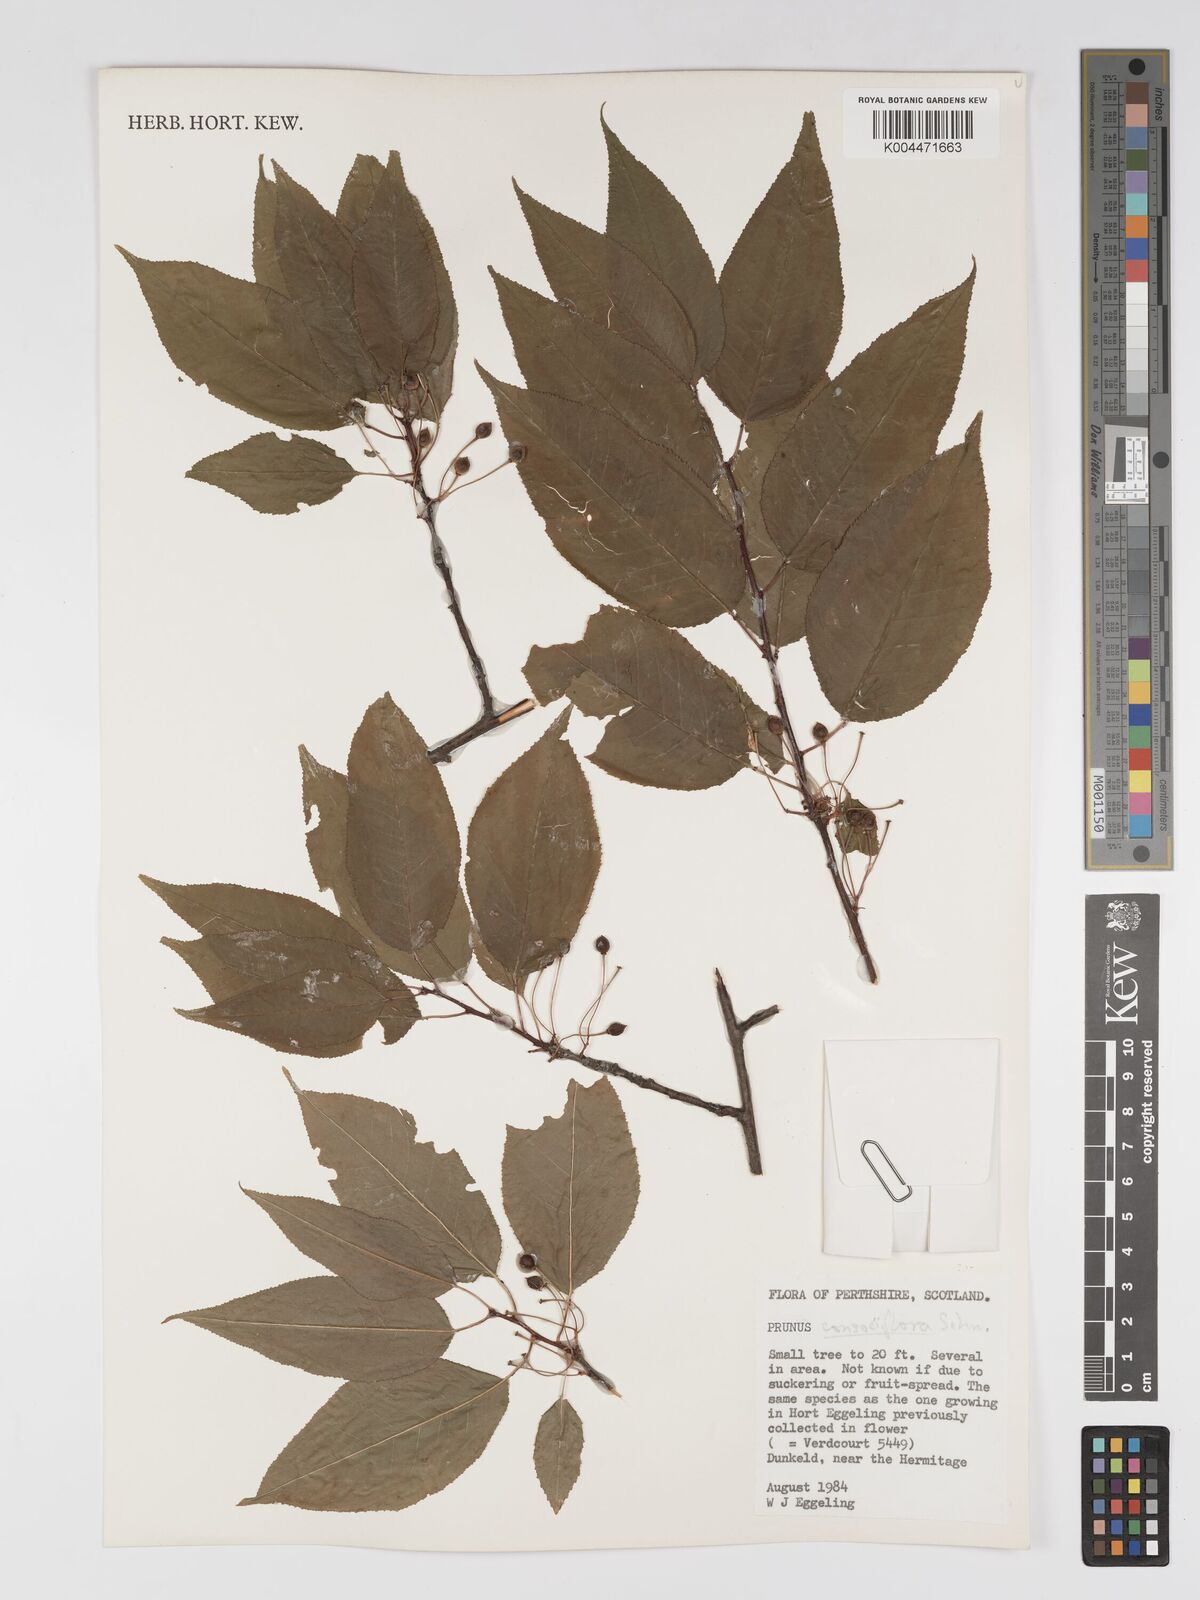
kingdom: Plantae
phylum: Tracheophyta
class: Magnoliopsida
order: Rosales
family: Rosaceae
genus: Prunus
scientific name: Prunus japonica
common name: Chinese bush cherry
